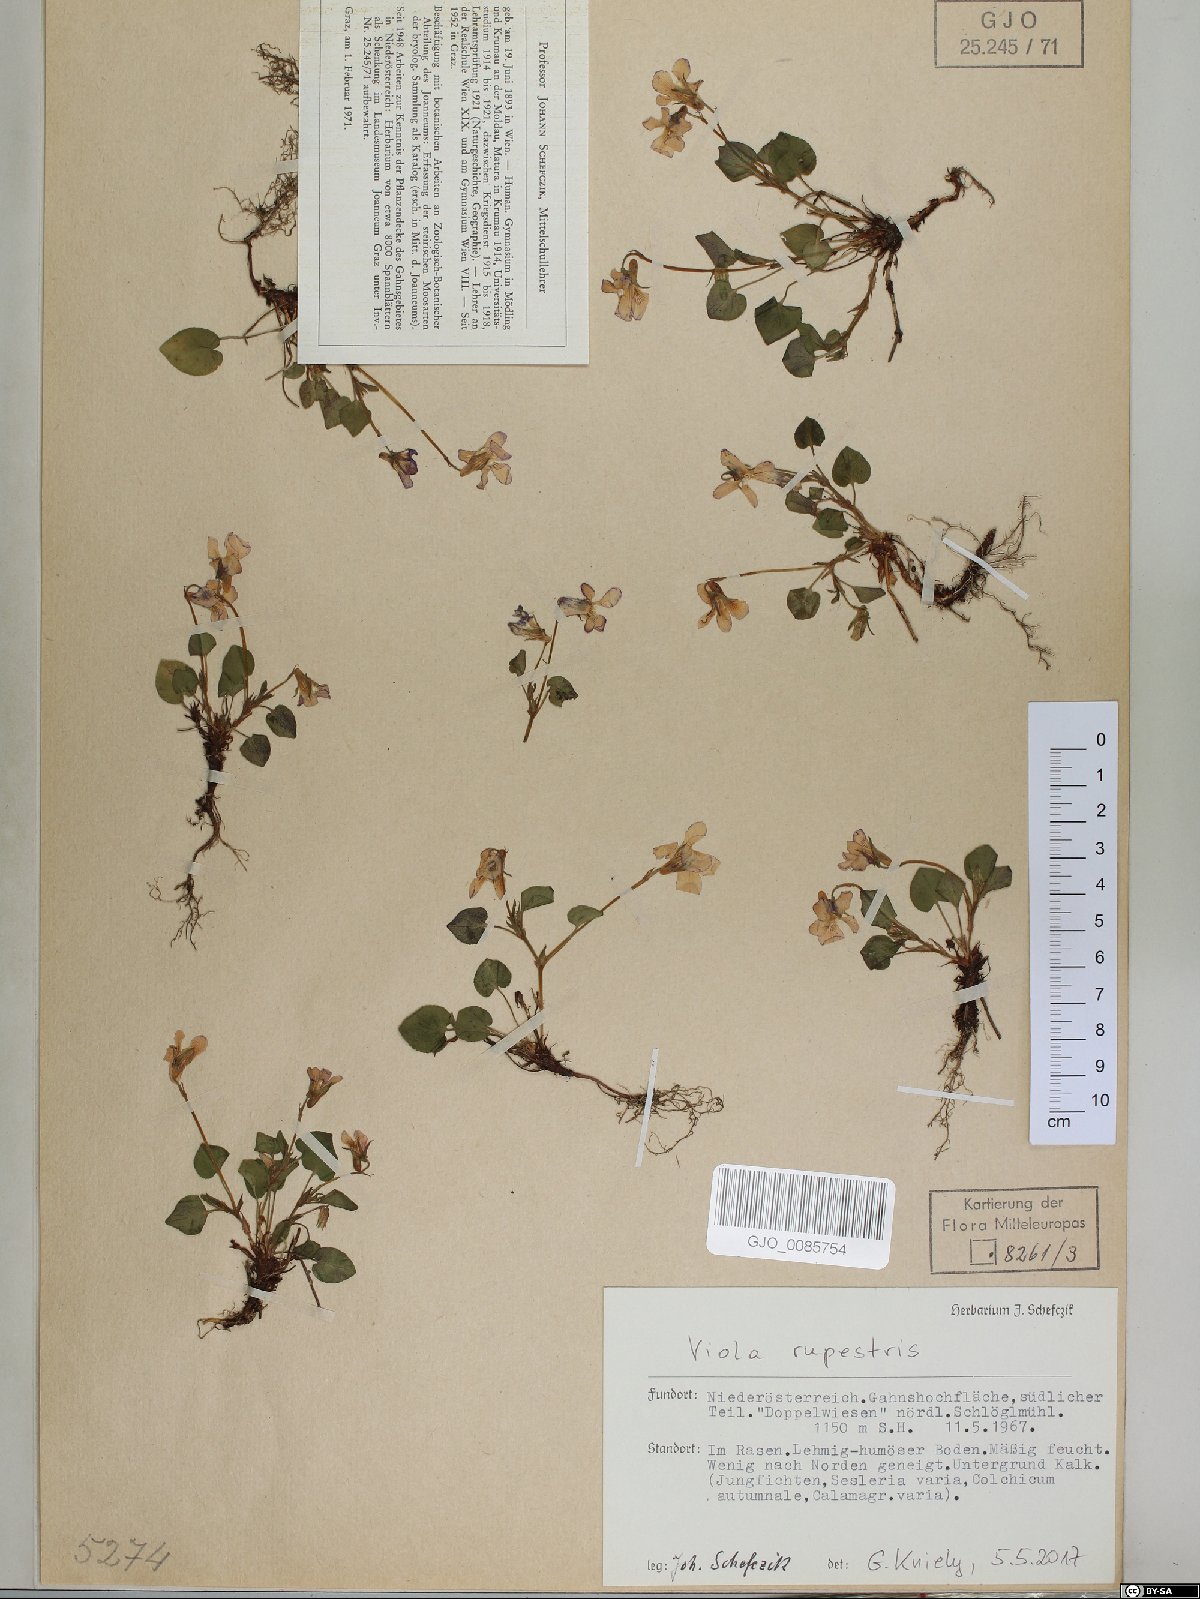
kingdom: Plantae
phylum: Tracheophyta
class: Magnoliopsida
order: Malpighiales
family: Violaceae
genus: Viola
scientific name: Viola rupestris
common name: Teesdale violet
